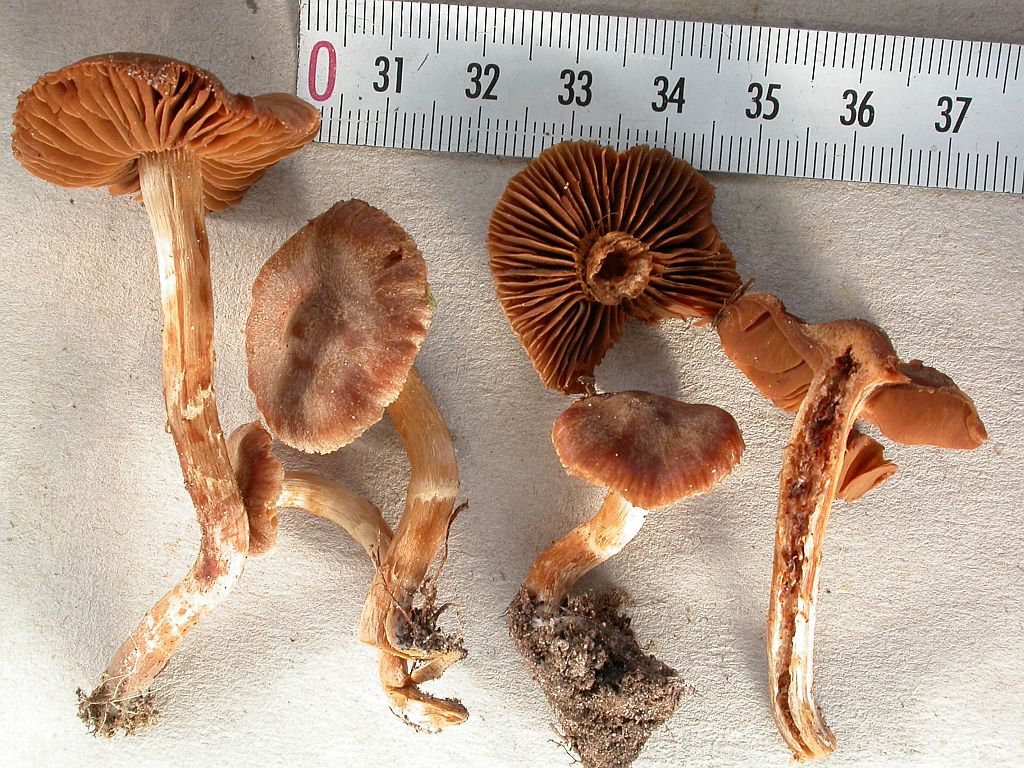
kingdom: Fungi
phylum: Basidiomycota
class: Agaricomycetes
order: Agaricales
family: Cortinariaceae
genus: Cortinarius
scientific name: Cortinarius obtusorum
